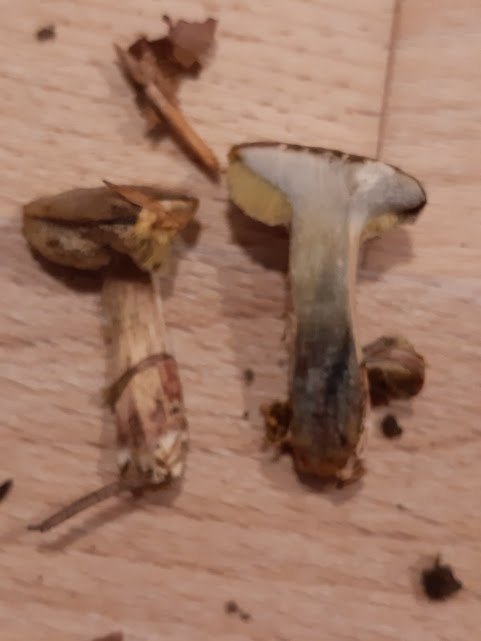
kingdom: Fungi
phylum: Basidiomycota
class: Agaricomycetes
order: Boletales
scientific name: Boletales
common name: rørhatordenen
